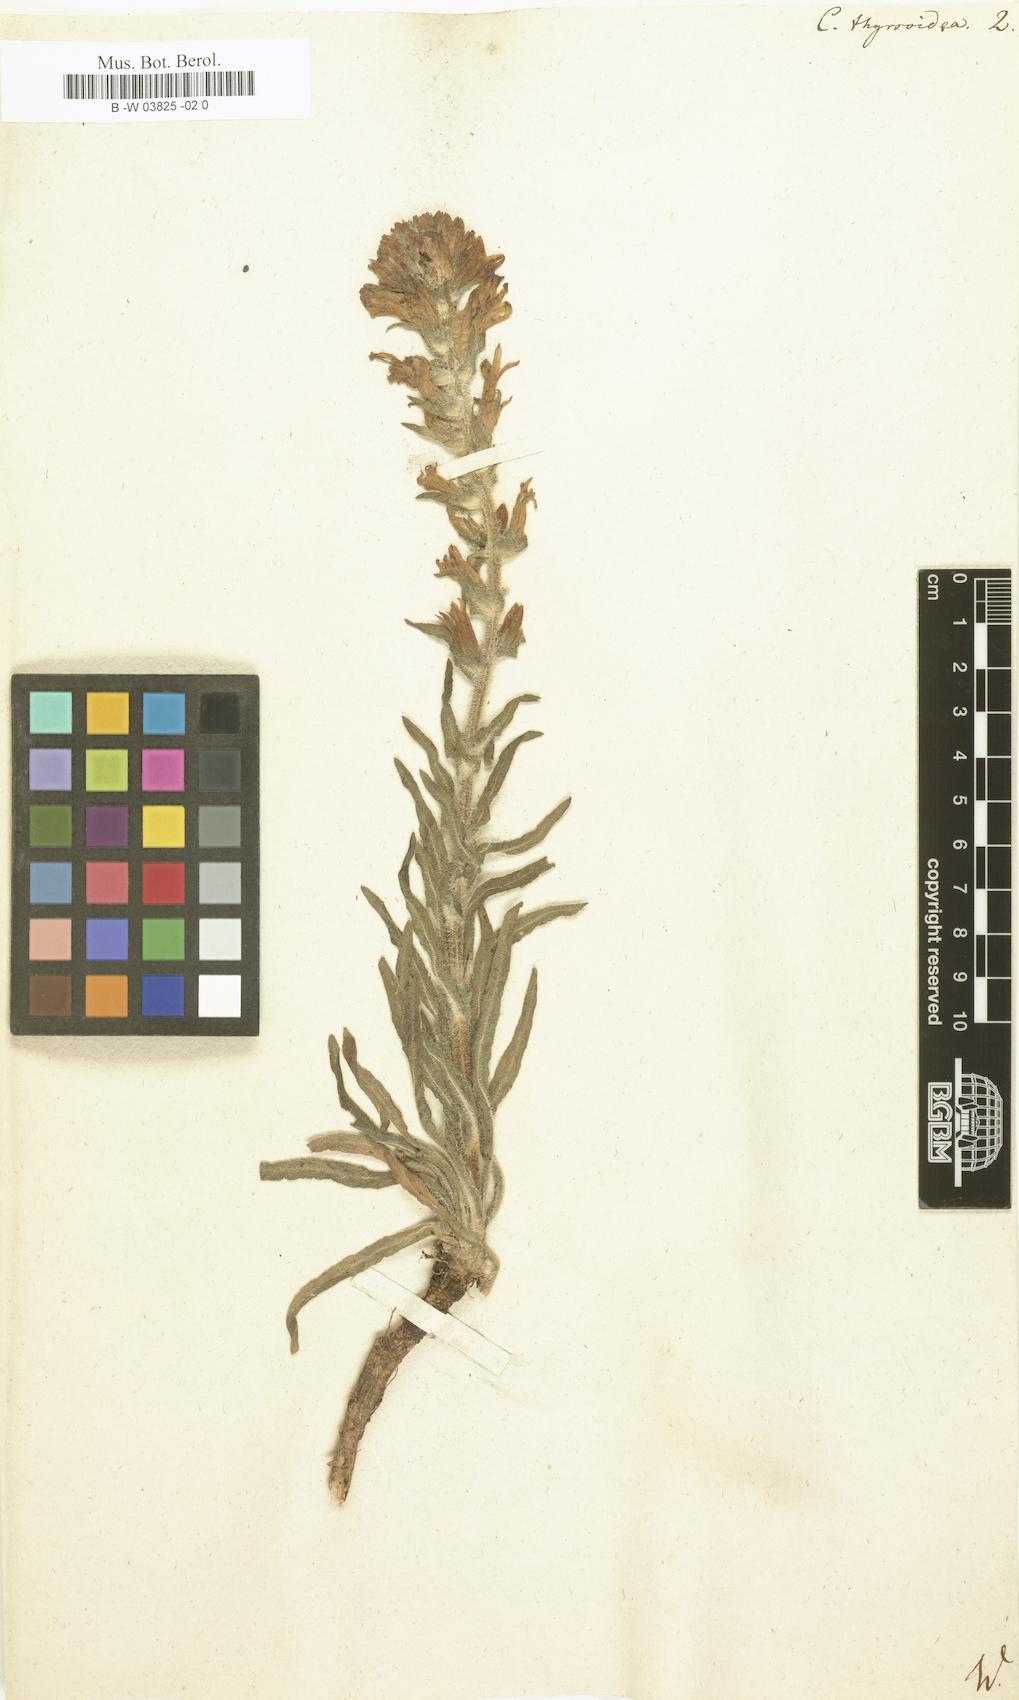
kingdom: Plantae
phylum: Tracheophyta
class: Magnoliopsida
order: Asterales
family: Campanulaceae
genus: Campanula
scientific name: Campanula speciosa
